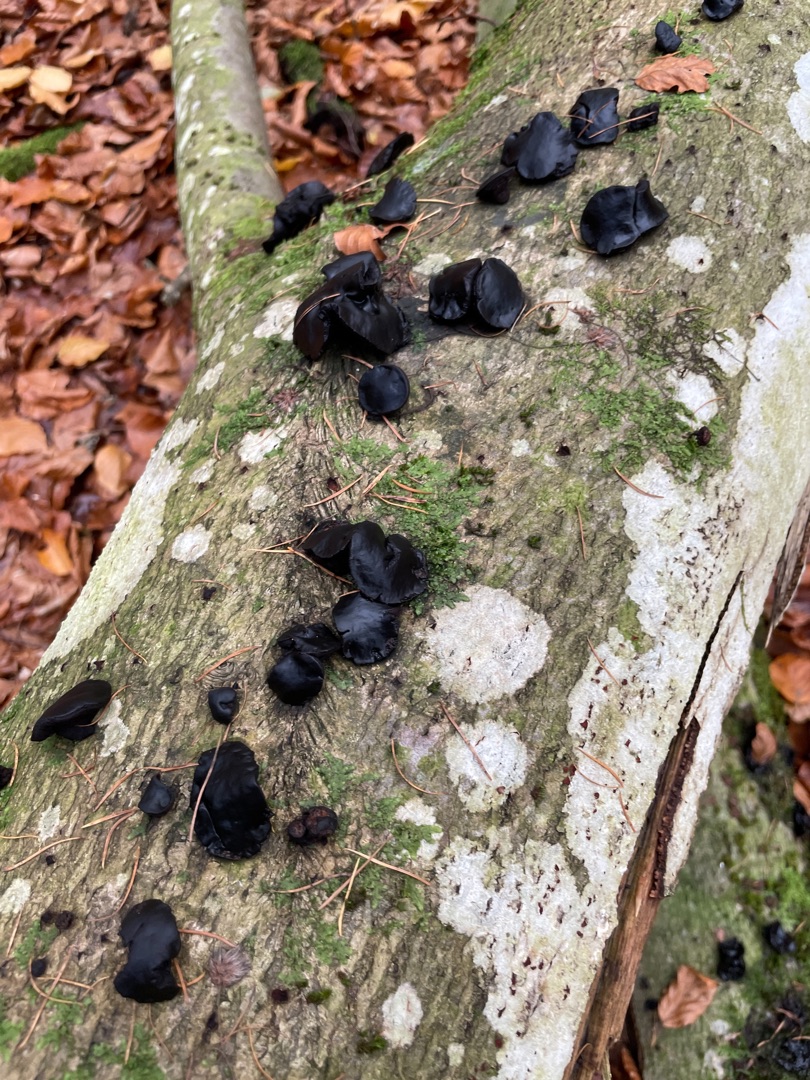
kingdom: Fungi
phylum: Ascomycota
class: Leotiomycetes
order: Phacidiales
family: Phacidiaceae
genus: Bulgaria
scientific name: Bulgaria inquinans
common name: Afsmittende topsvamp
